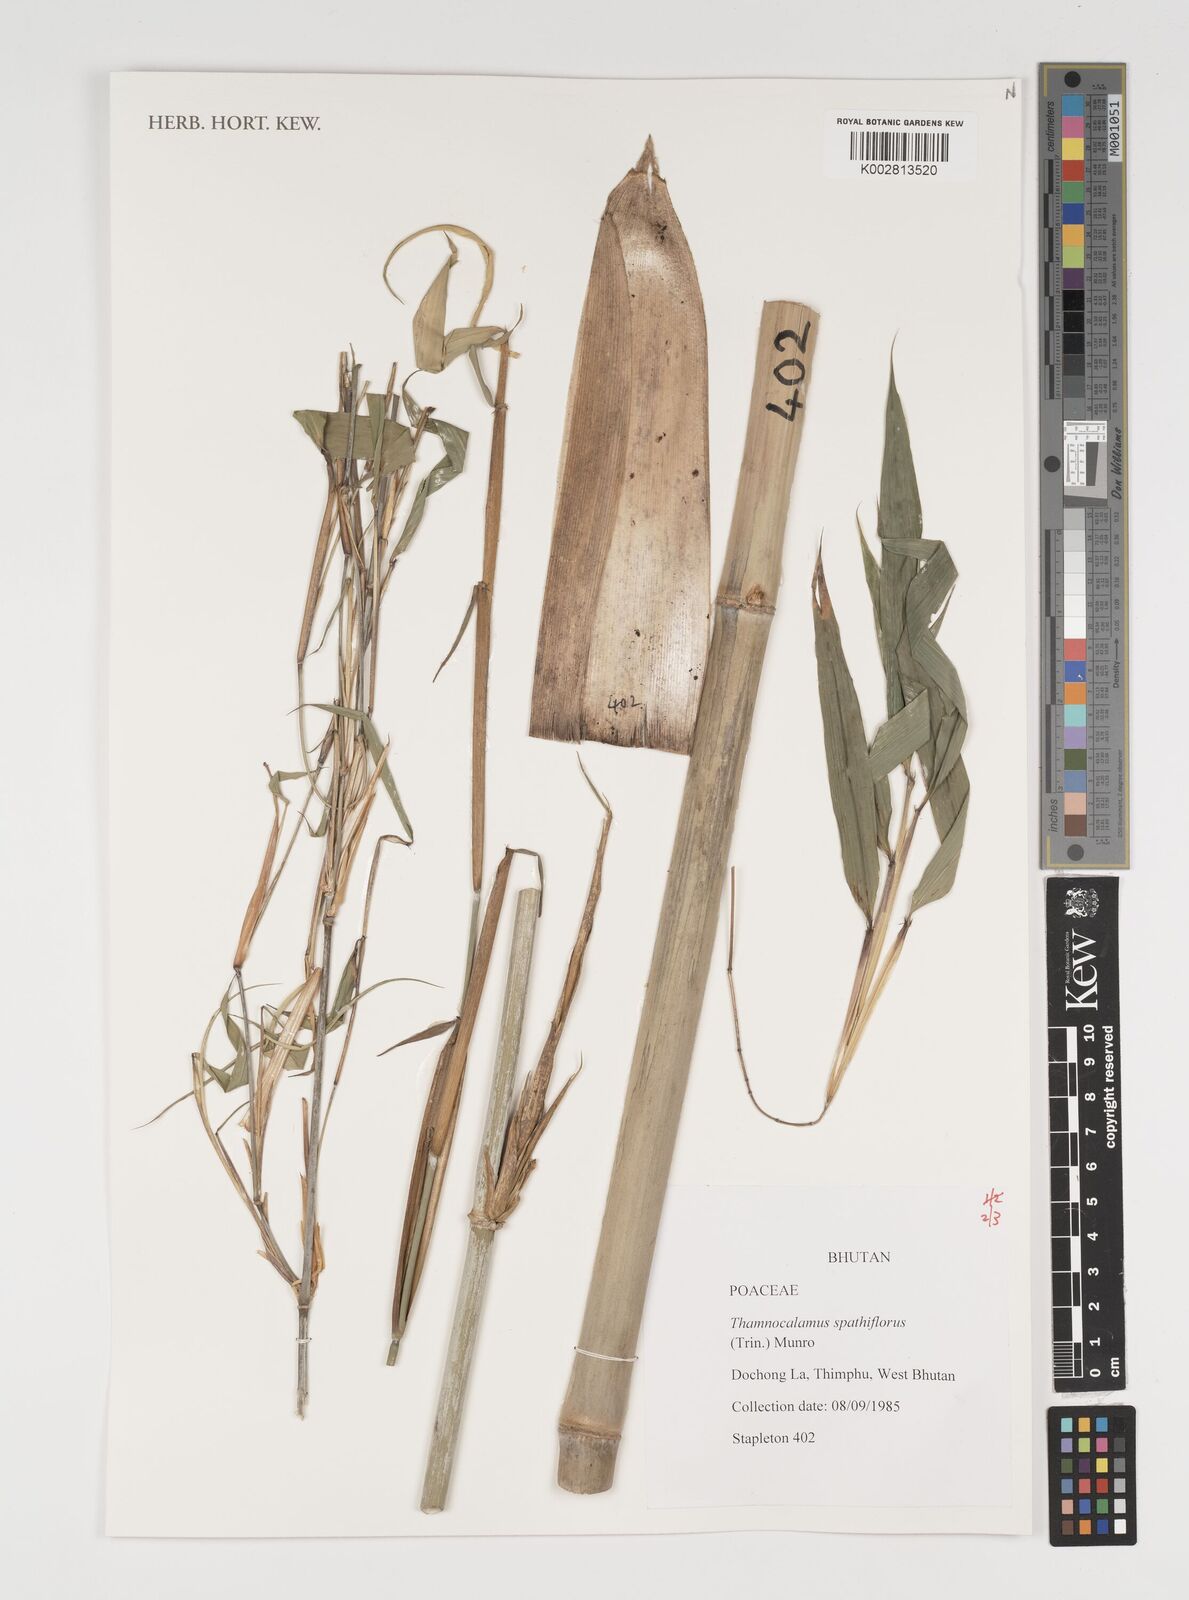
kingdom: Plantae
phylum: Tracheophyta
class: Liliopsida
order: Poales
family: Poaceae
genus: Thamnocalamus
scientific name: Thamnocalamus spathiflorus
